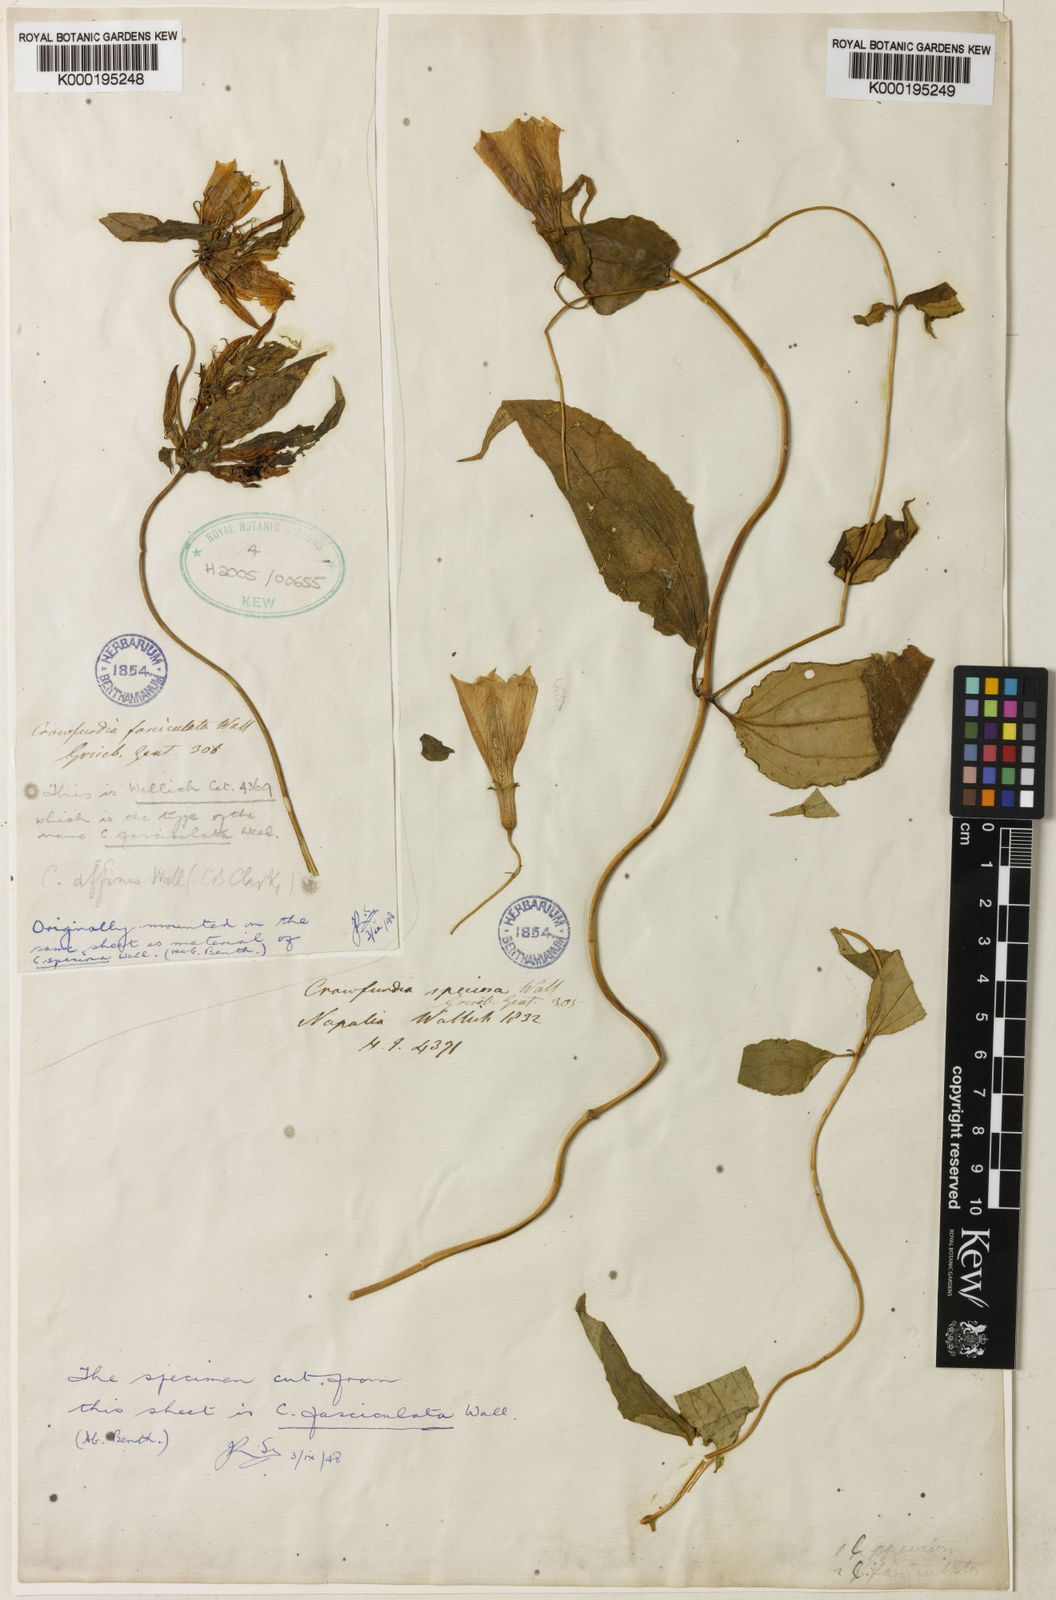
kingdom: Plantae
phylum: Tracheophyta
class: Magnoliopsida
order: Gentianales
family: Gentianaceae
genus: Tripterospermum
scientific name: Tripterospermum fasciculatum
